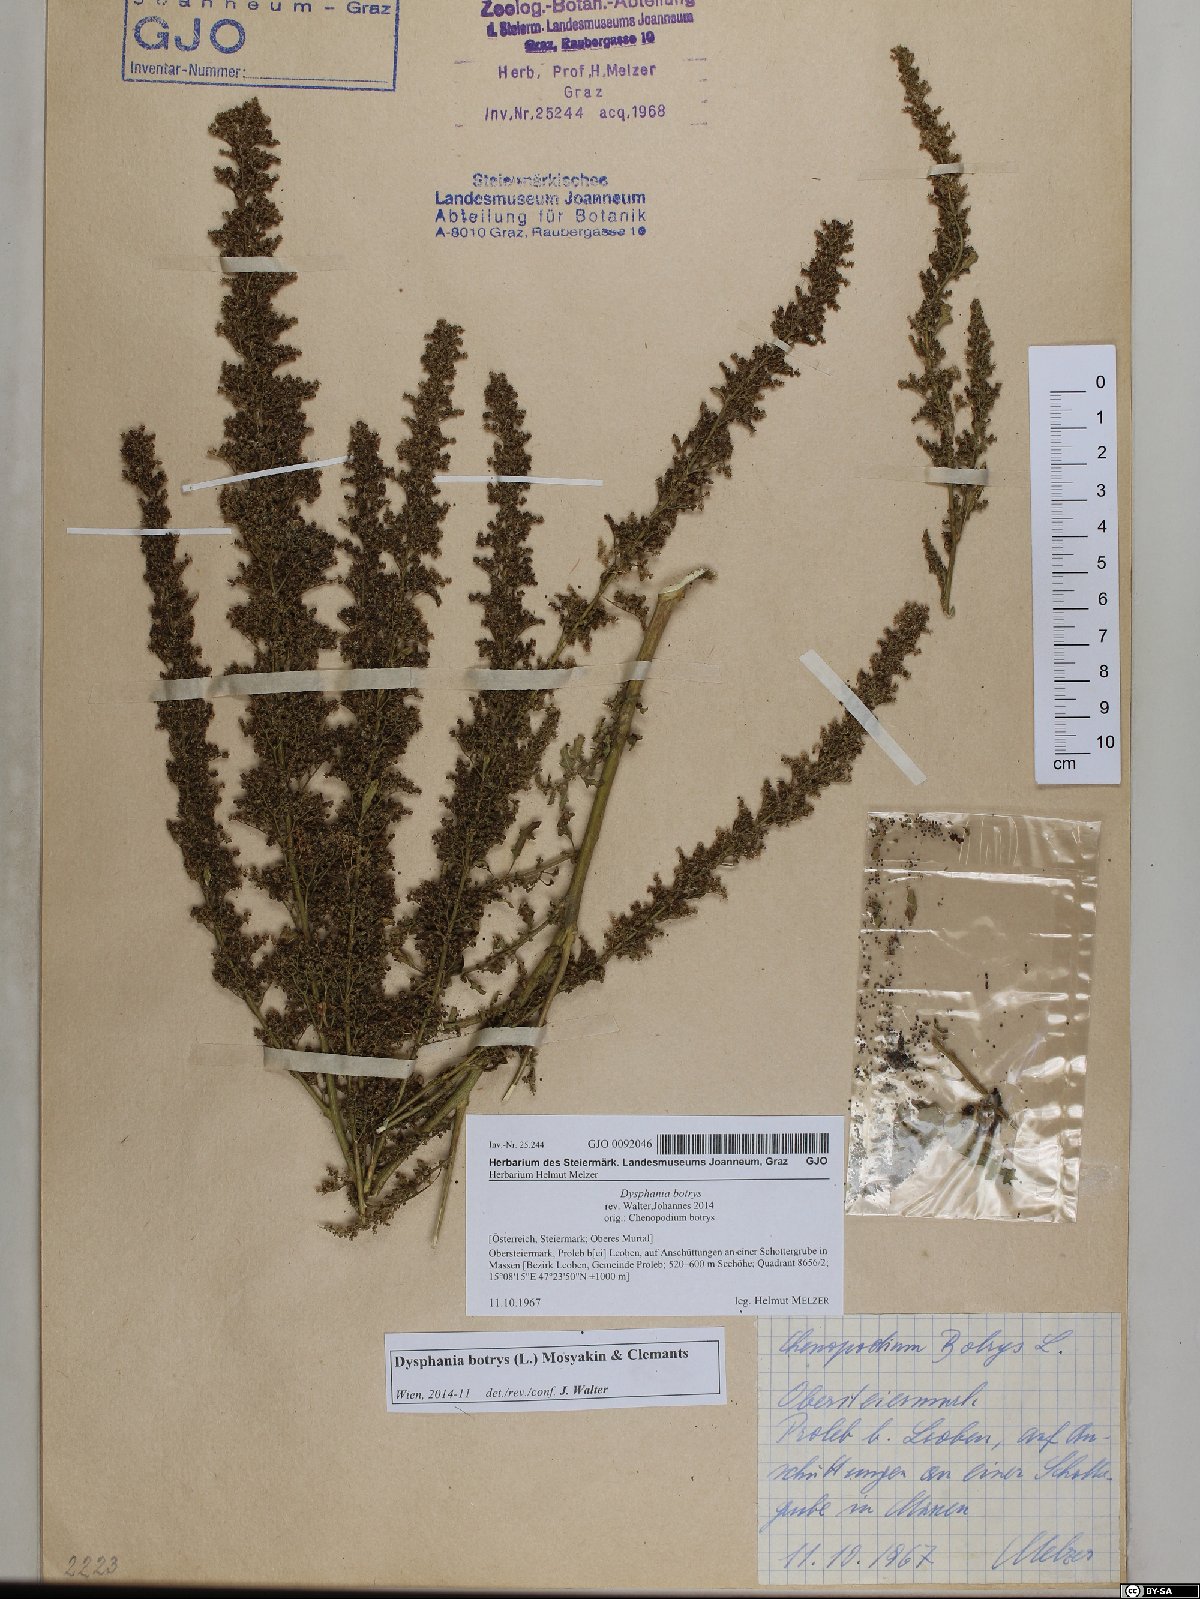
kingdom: Plantae
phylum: Tracheophyta
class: Magnoliopsida
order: Caryophyllales
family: Amaranthaceae
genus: Dysphania
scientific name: Dysphania botrys
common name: Feather-geranium
